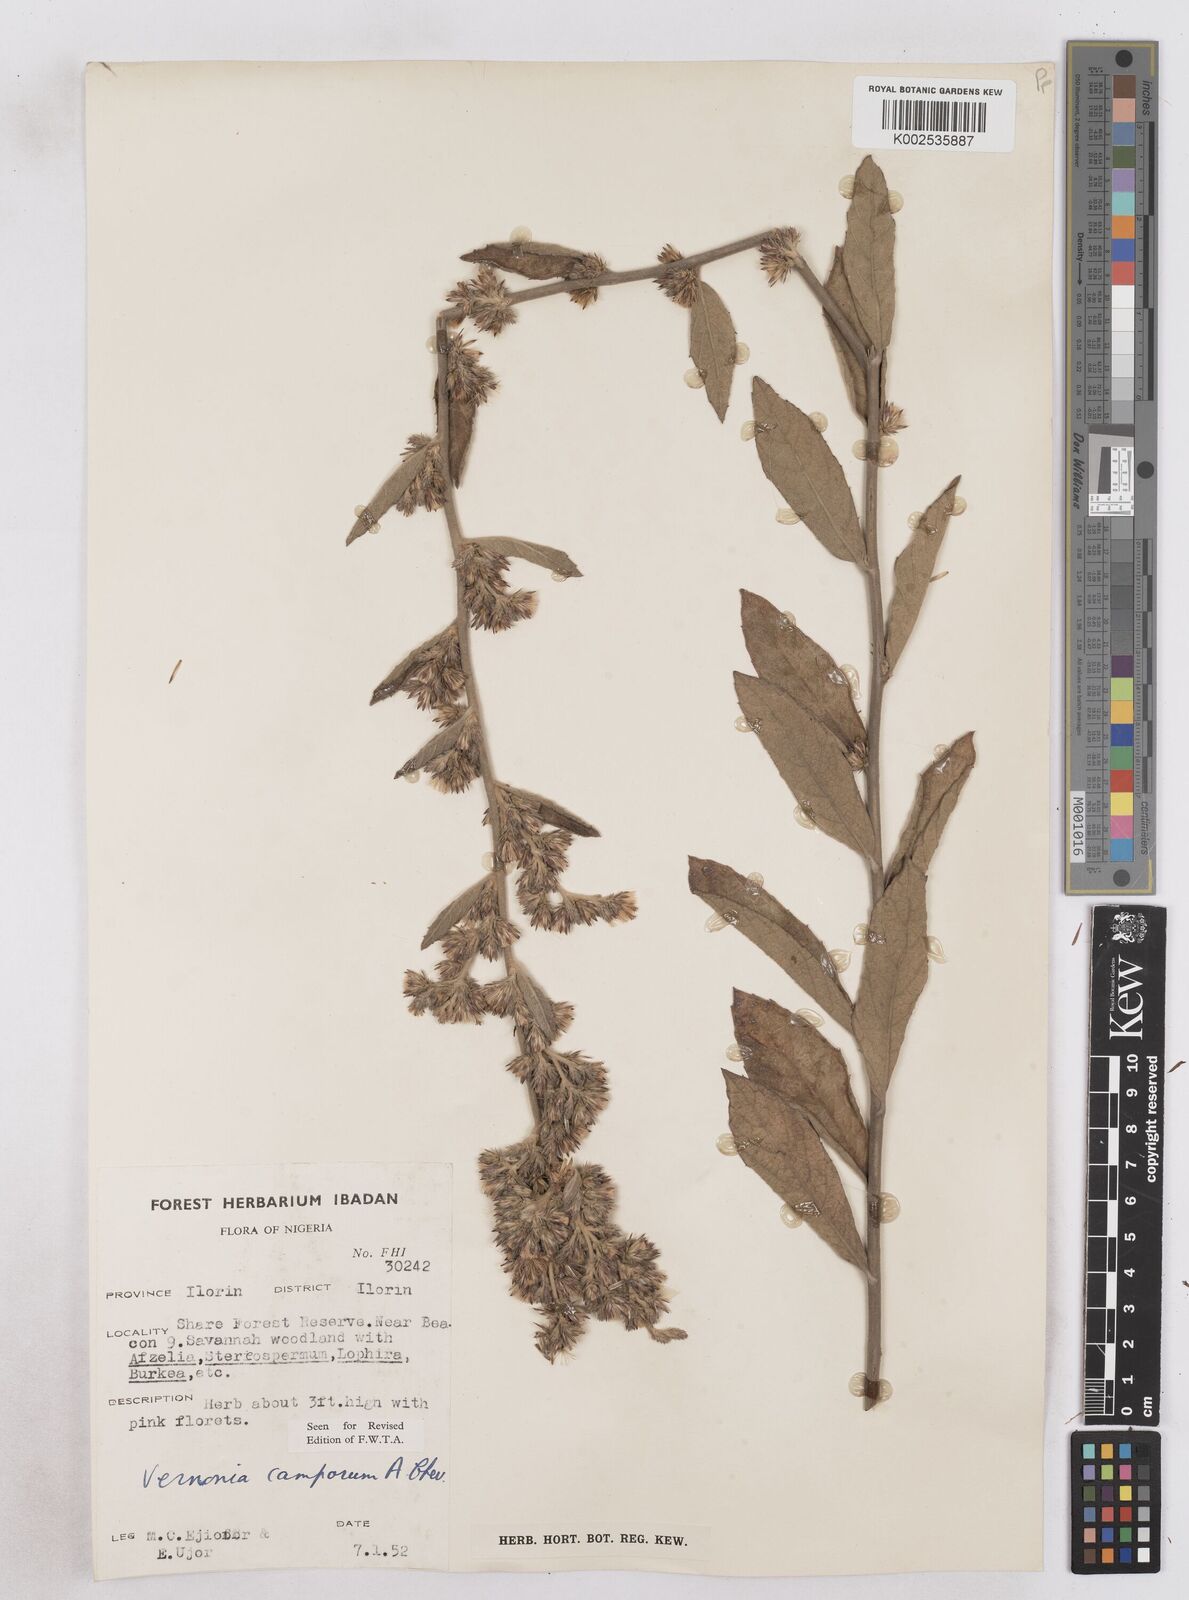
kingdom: Plantae
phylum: Tracheophyta
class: Magnoliopsida
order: Asterales
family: Asteraceae
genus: Vernoniastrum
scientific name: Vernoniastrum camporum
